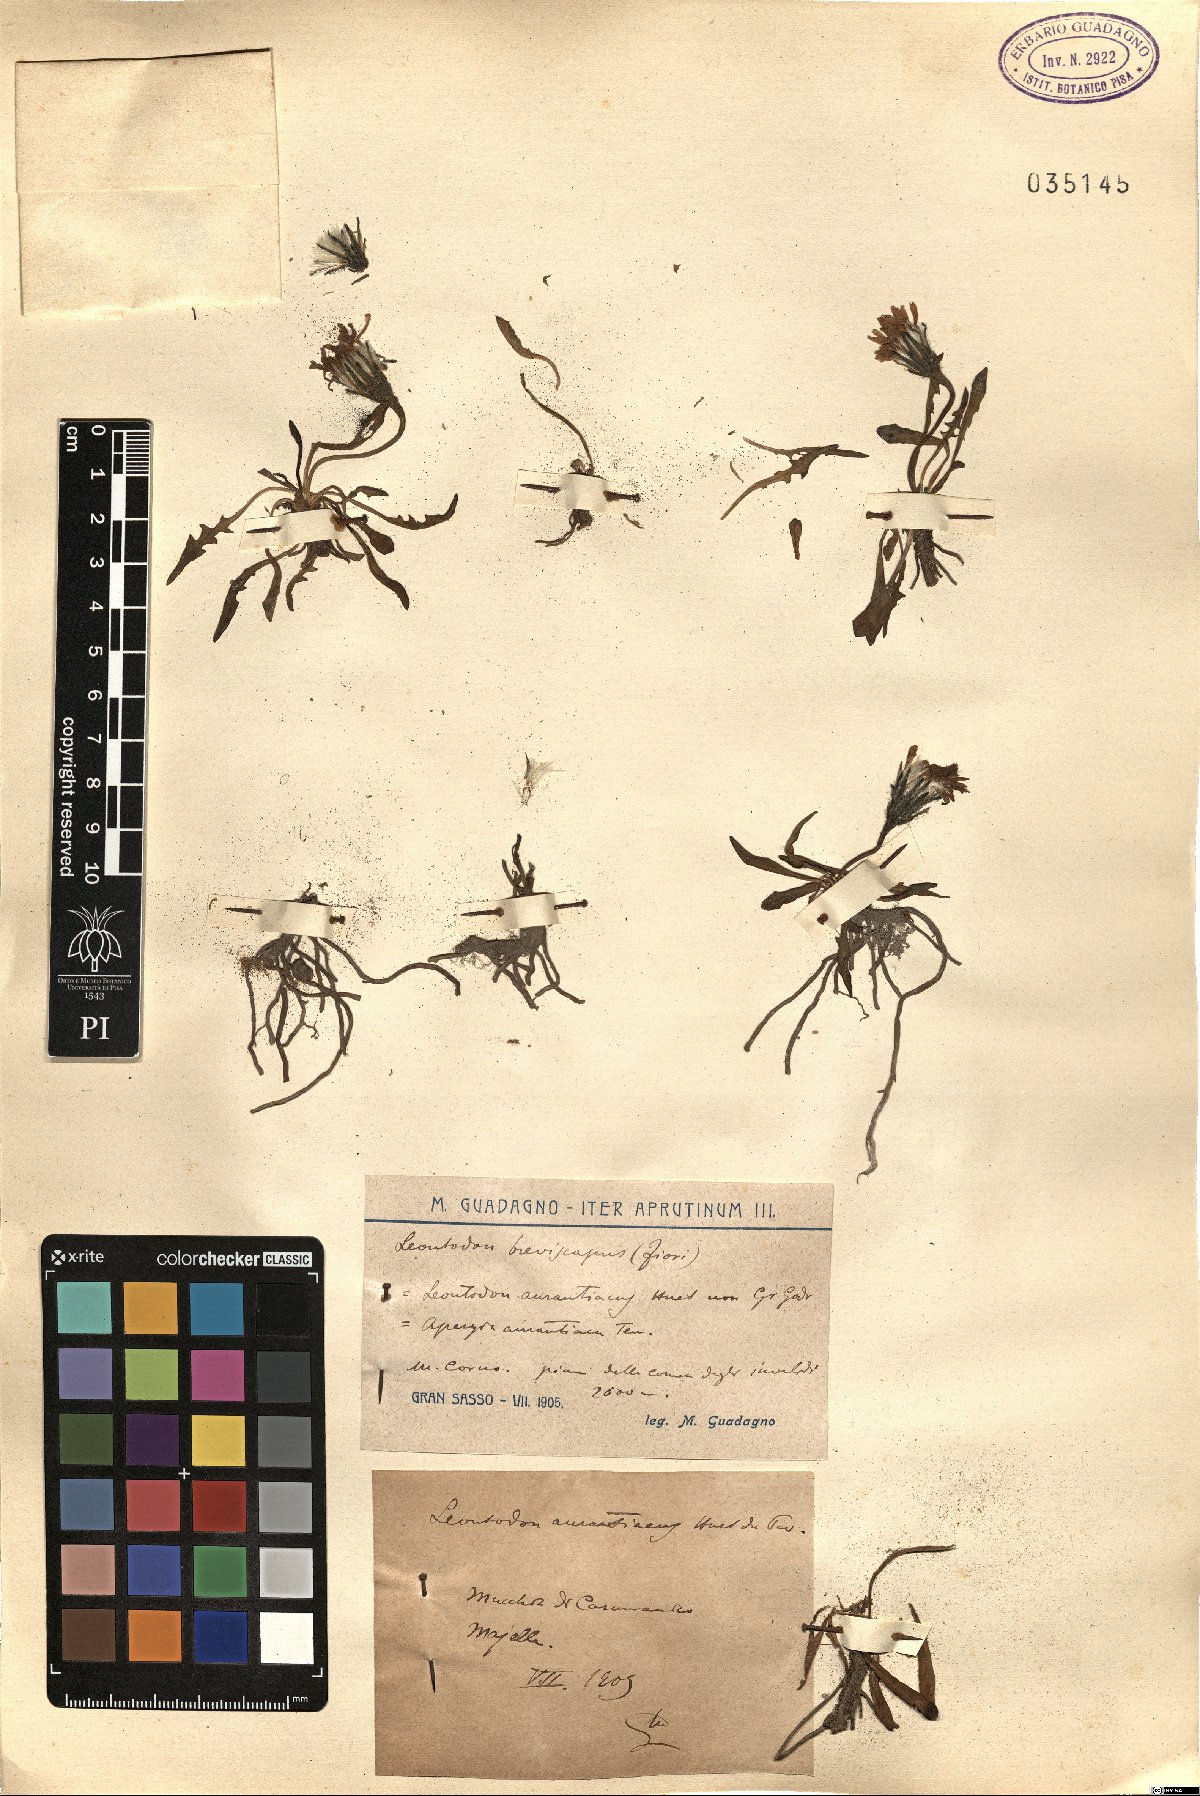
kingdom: Plantae
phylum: Tracheophyta
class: Magnoliopsida
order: Asterales
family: Asteraceae
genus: Leontodon
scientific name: Leontodon
